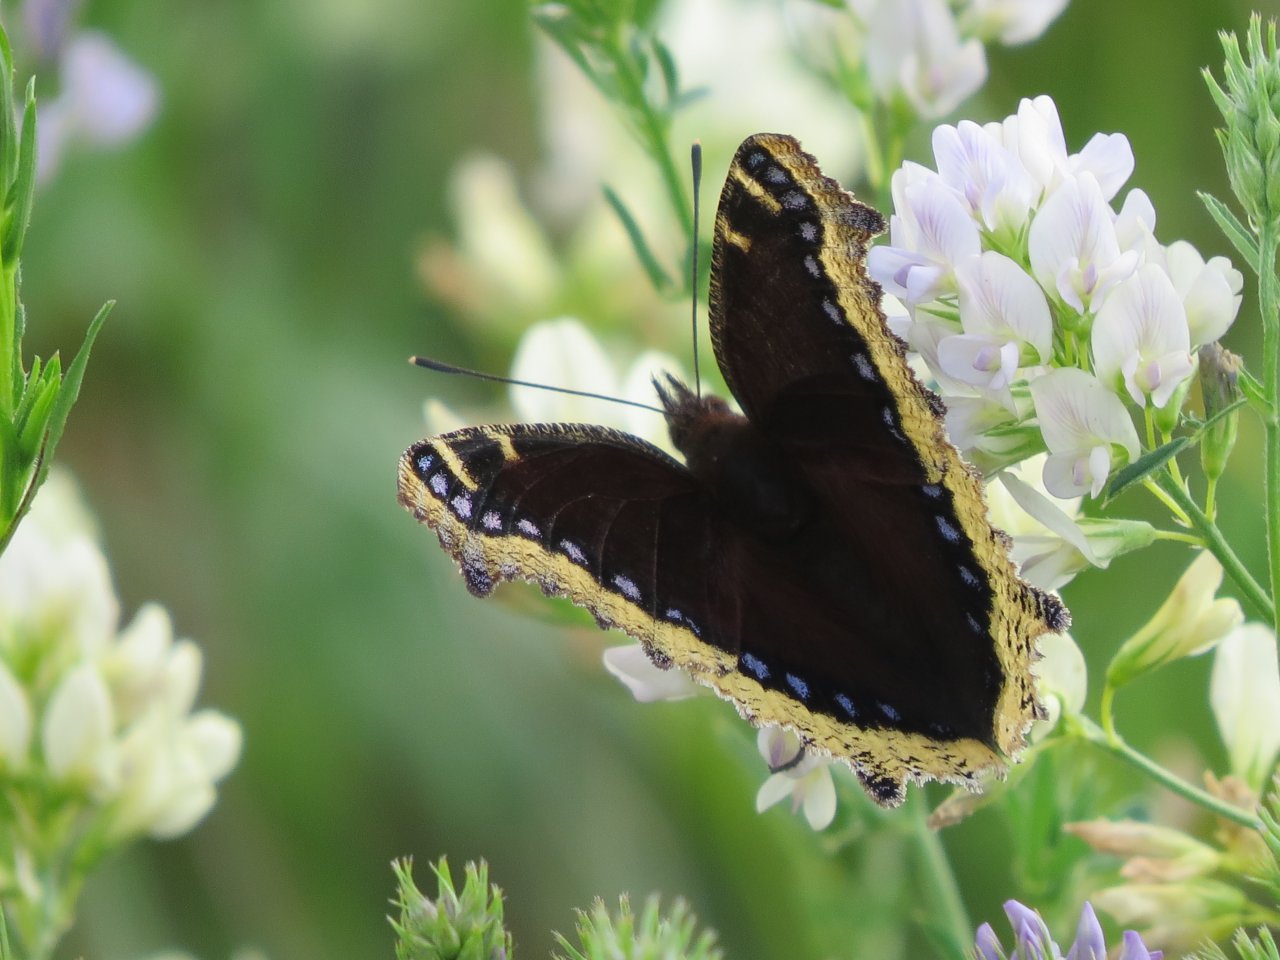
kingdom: Animalia
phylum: Arthropoda
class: Insecta
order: Lepidoptera
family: Nymphalidae
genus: Nymphalis
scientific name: Nymphalis antiopa
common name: Mourning Cloak
